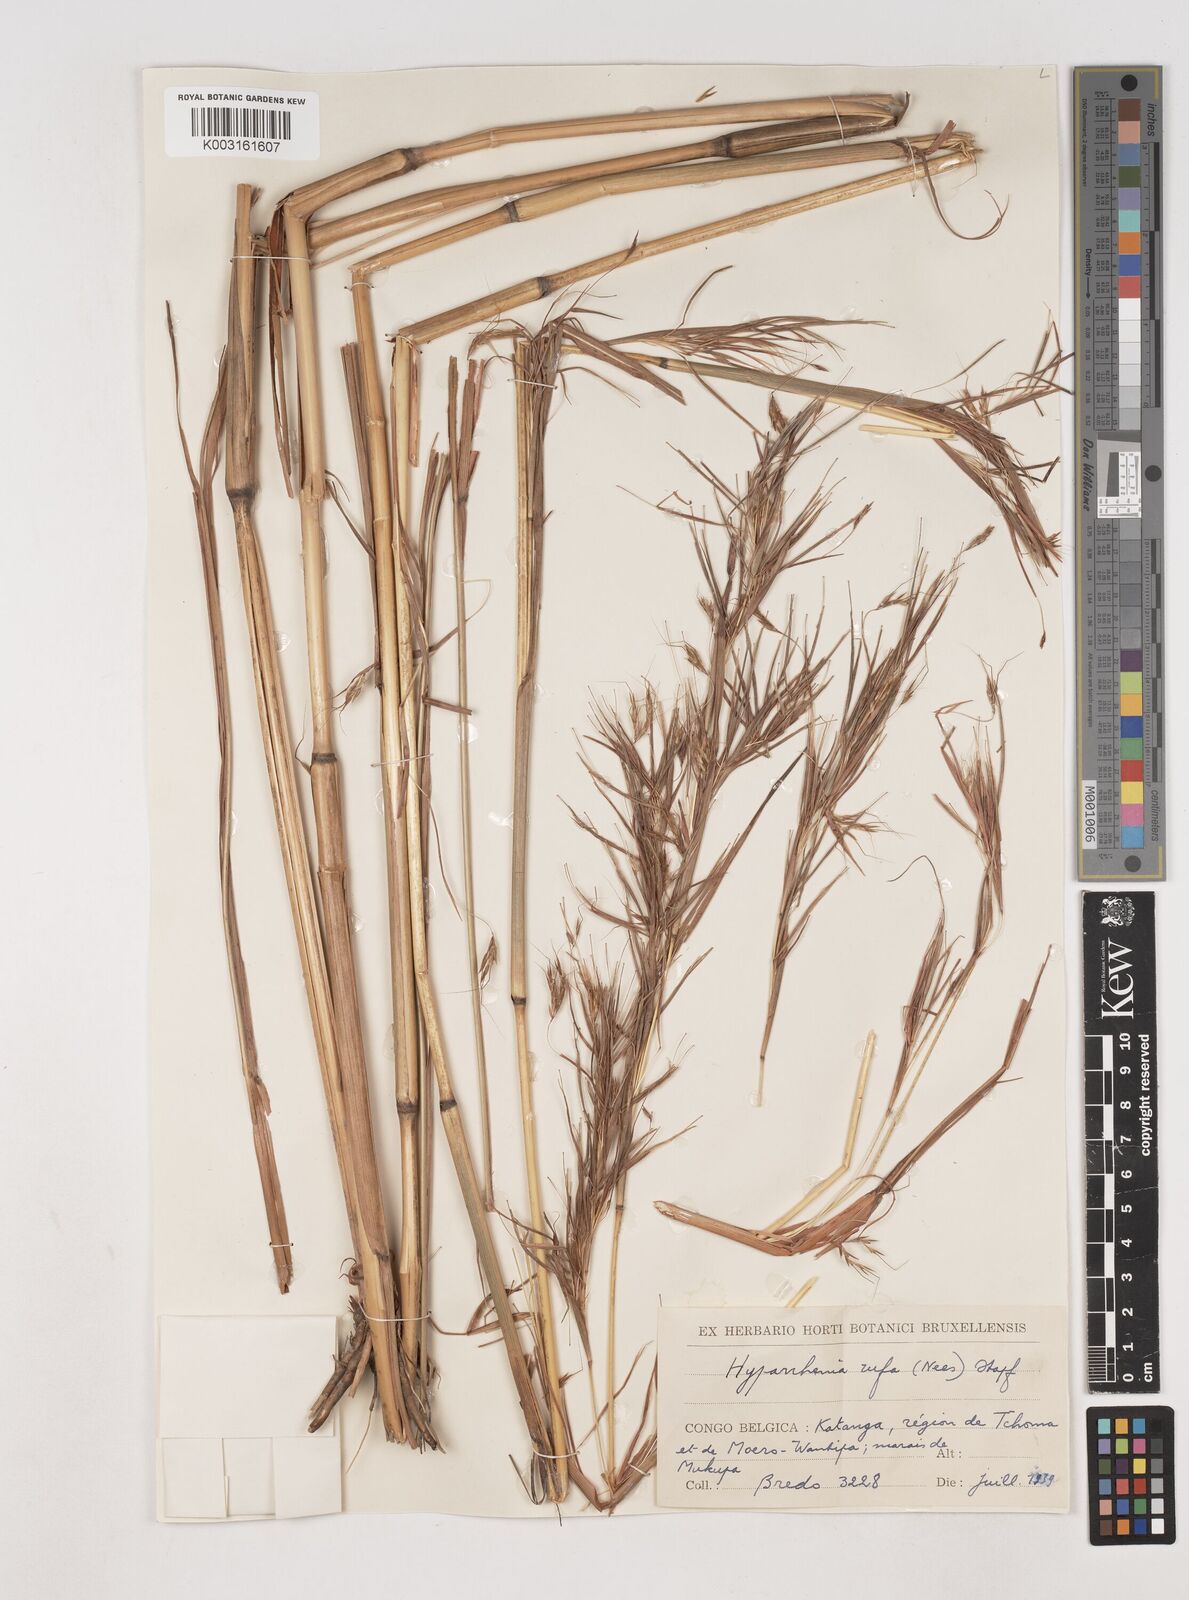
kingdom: Plantae
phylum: Tracheophyta
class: Liliopsida
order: Poales
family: Poaceae
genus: Hyparrhenia
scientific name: Hyparrhenia rufa
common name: Jaraguagrass
